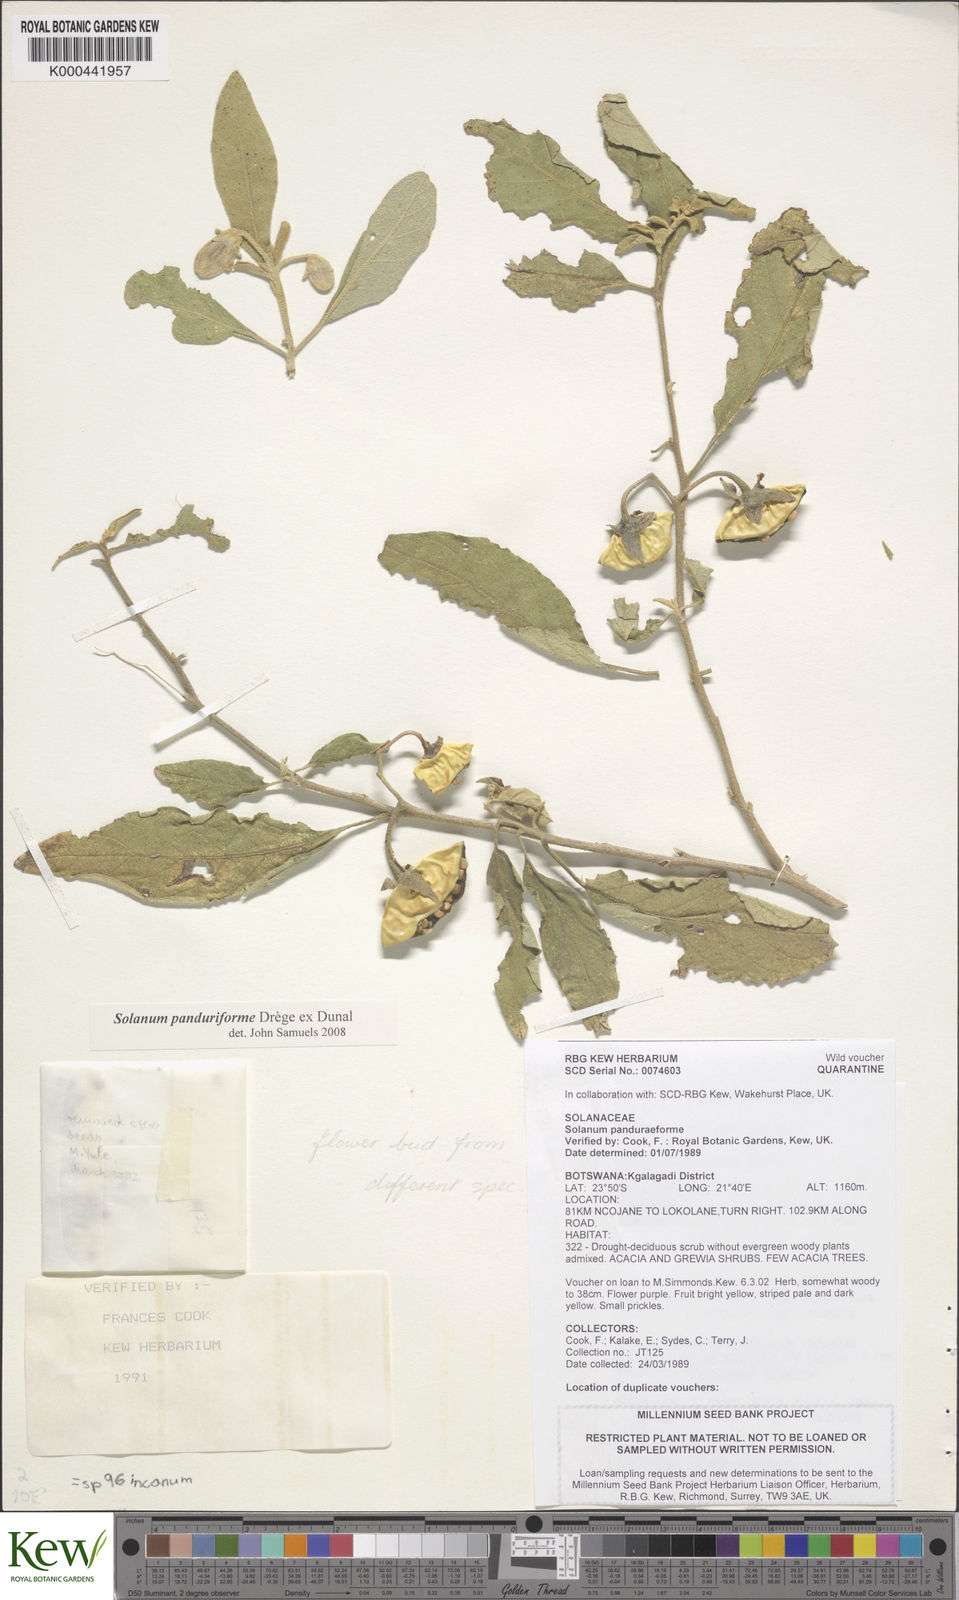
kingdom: Plantae
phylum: Tracheophyta
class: Magnoliopsida
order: Solanales
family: Solanaceae
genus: Solanum
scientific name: Solanum campylacanthum
